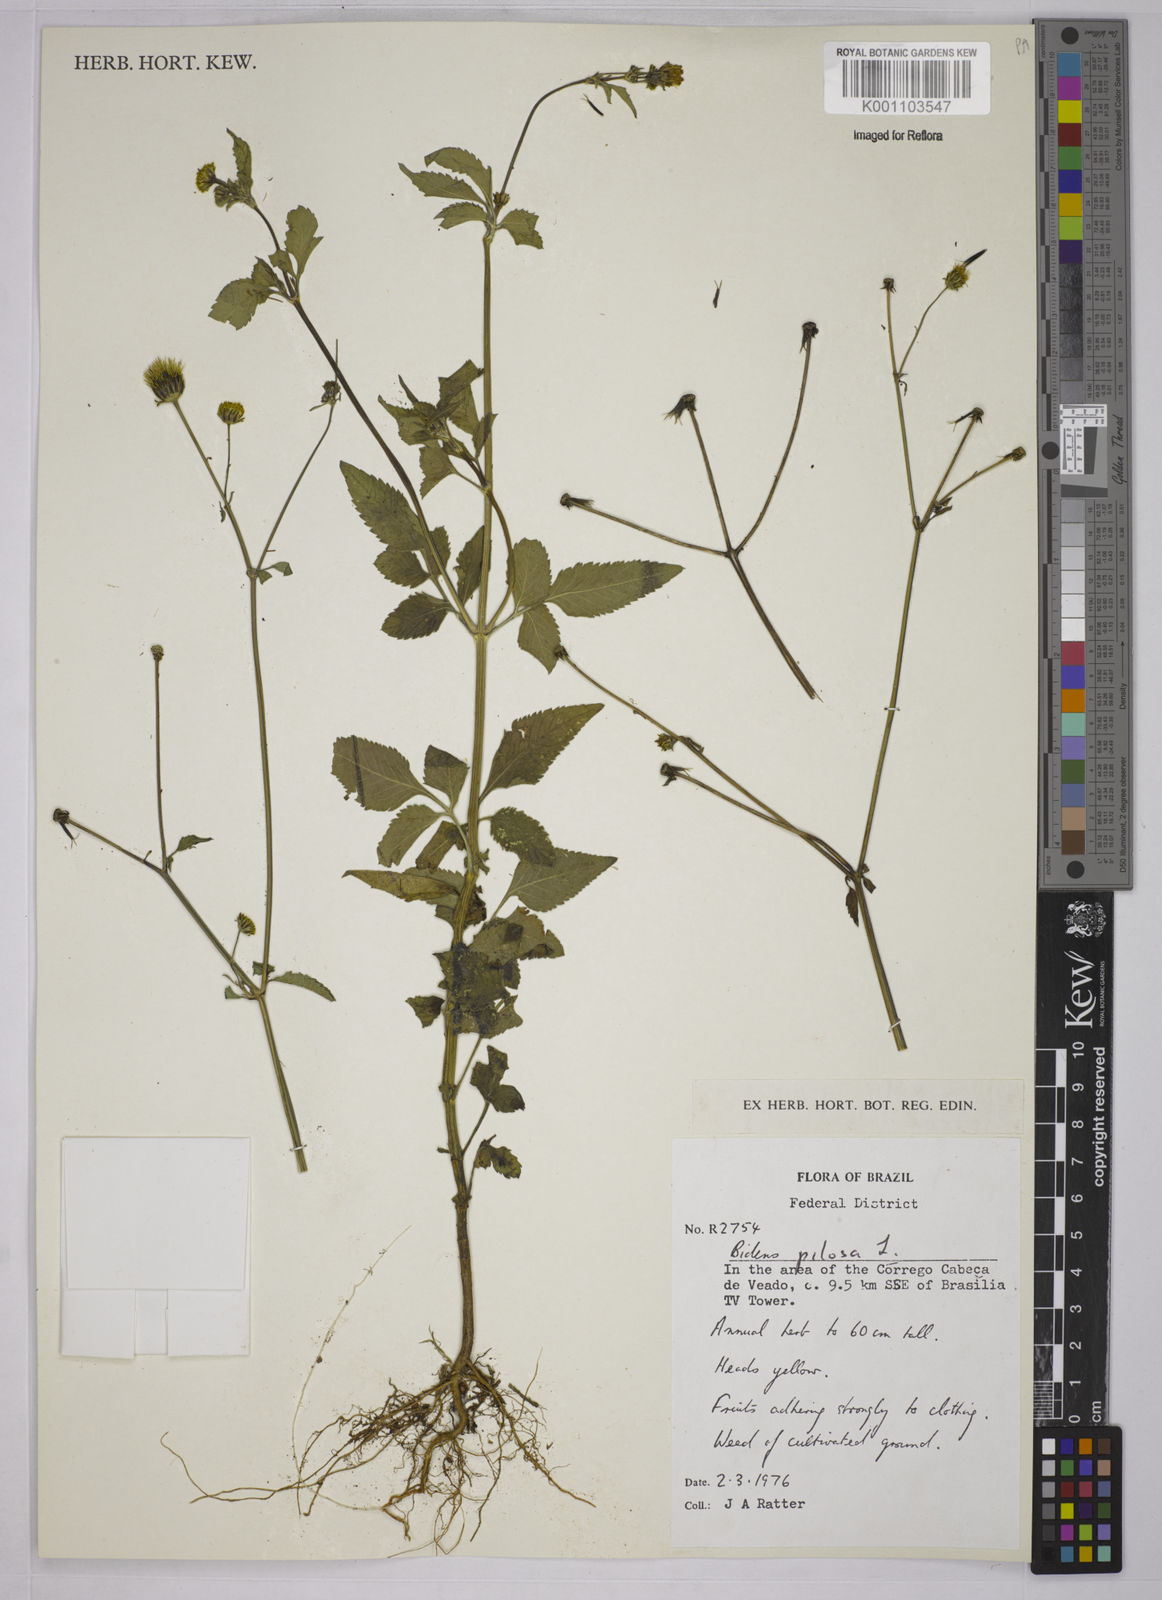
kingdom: Plantae
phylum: Tracheophyta
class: Magnoliopsida
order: Asterales
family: Asteraceae
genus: Bidens
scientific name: Bidens pilosa
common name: Black-jack
